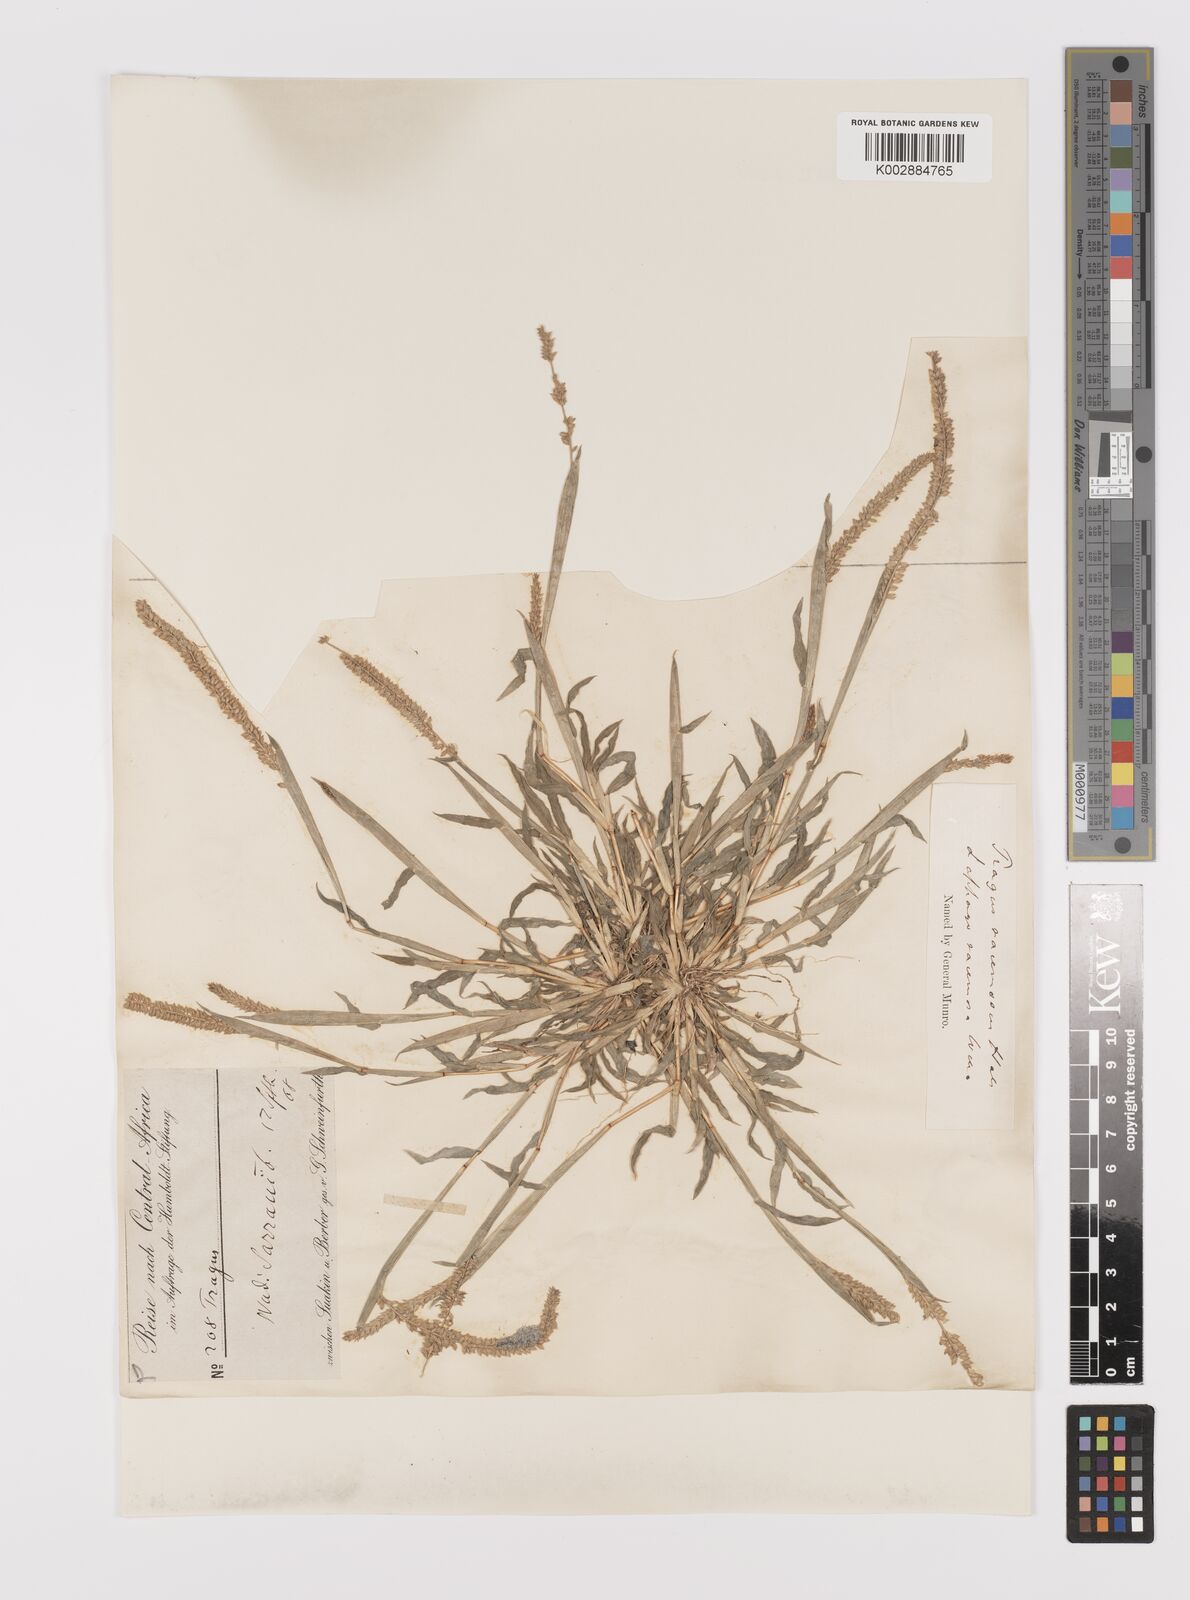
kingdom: Plantae
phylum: Tracheophyta
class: Liliopsida
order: Poales
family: Poaceae
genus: Tragus
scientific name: Tragus berteronianus
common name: African bur-grass
